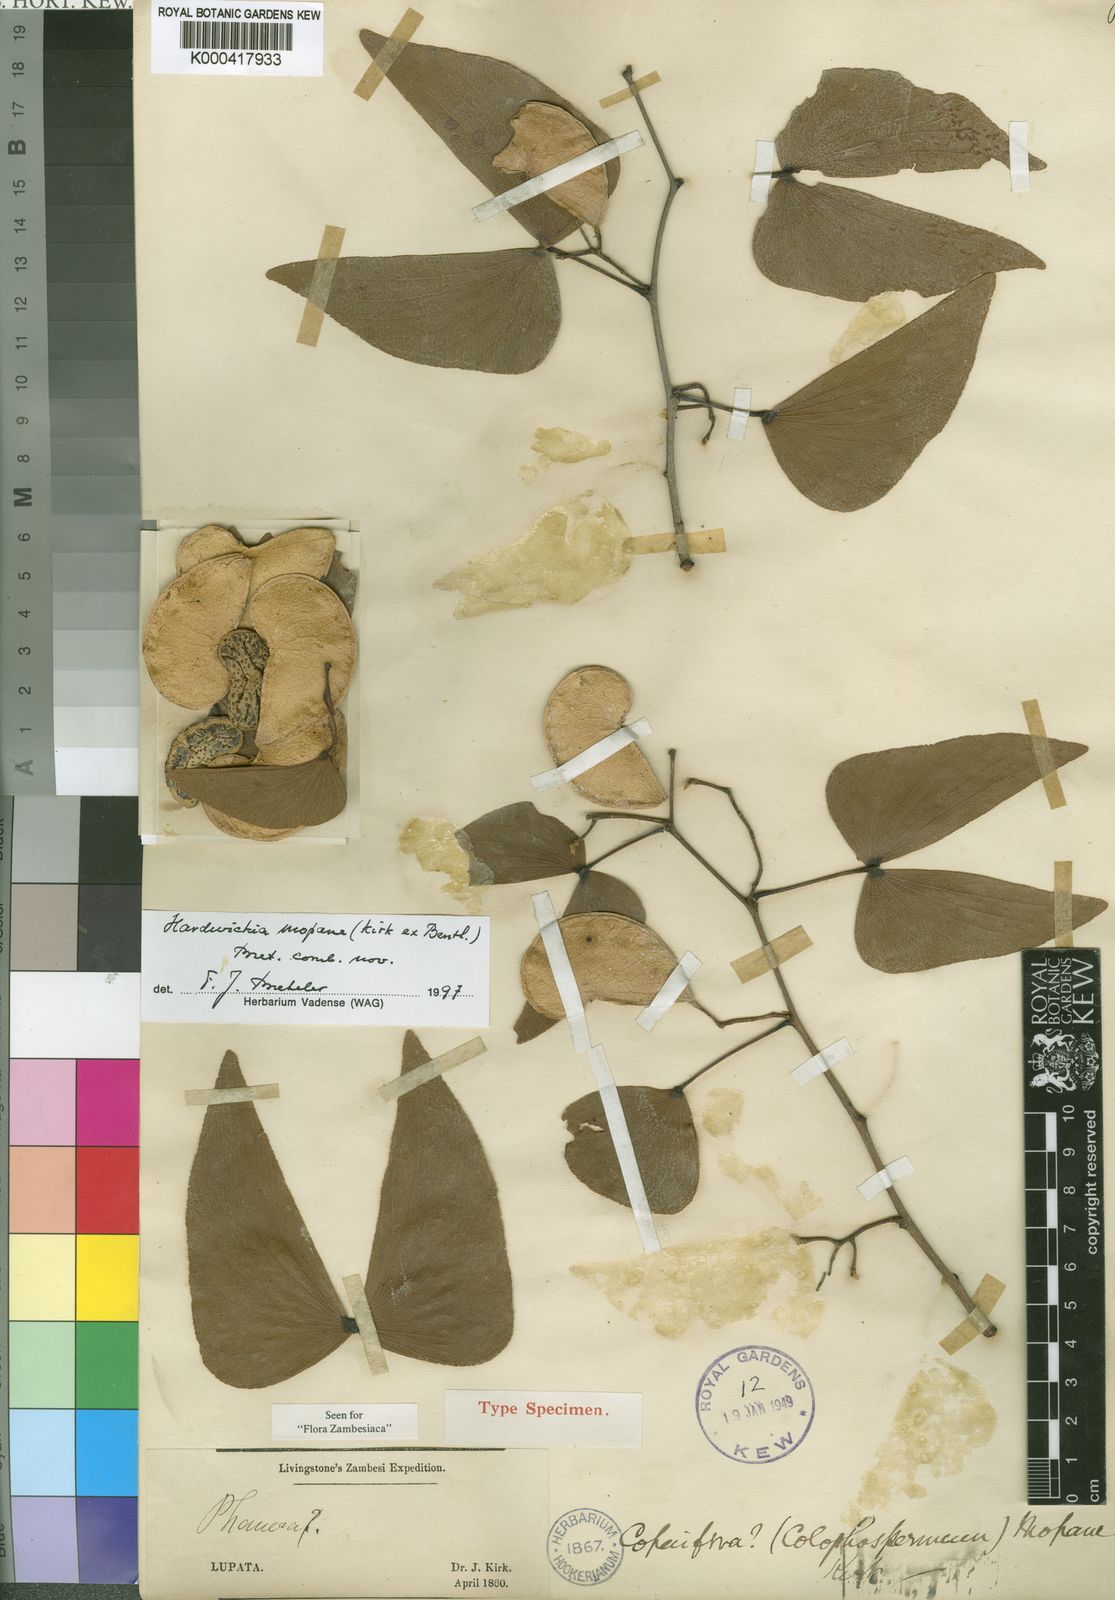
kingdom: Plantae
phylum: Tracheophyta
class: Magnoliopsida
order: Fabales
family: Fabaceae
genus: Colophospermum
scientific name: Colophospermum
